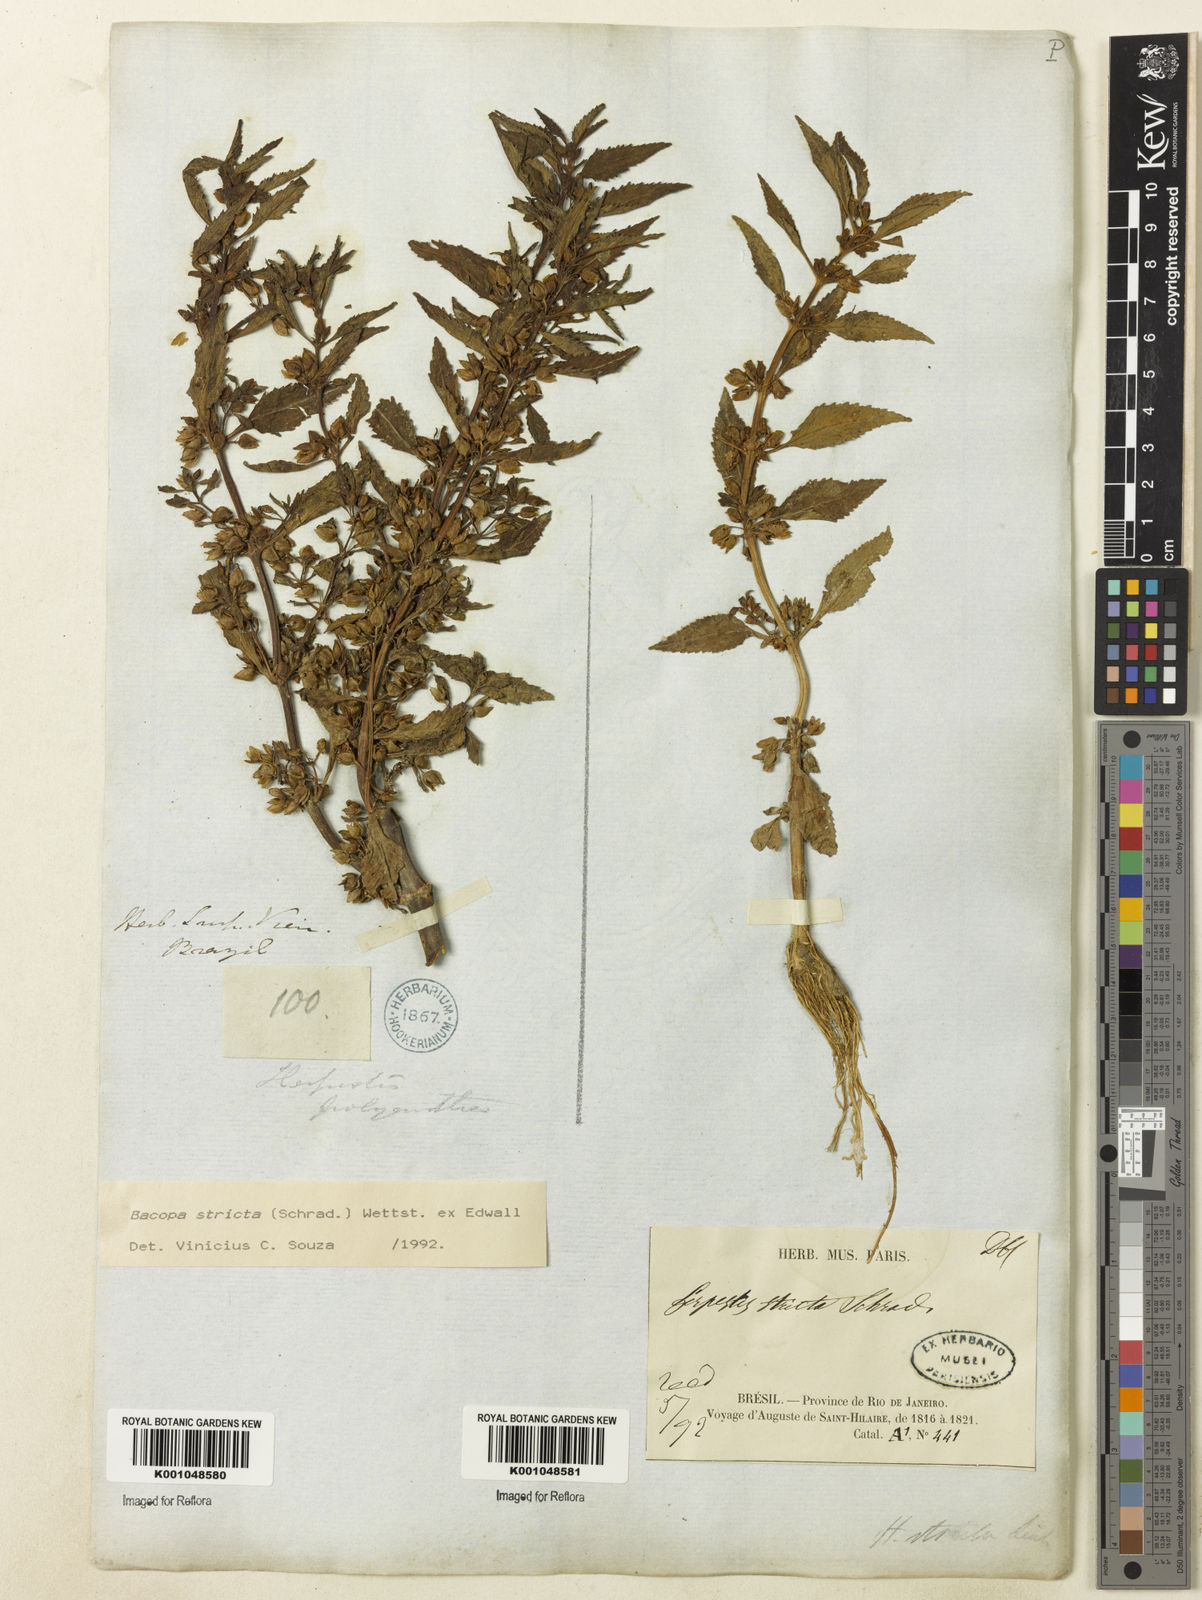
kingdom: Plantae
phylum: Tracheophyta
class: Magnoliopsida
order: Lamiales
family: Plantaginaceae
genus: Bacopa
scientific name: Bacopa stricta
